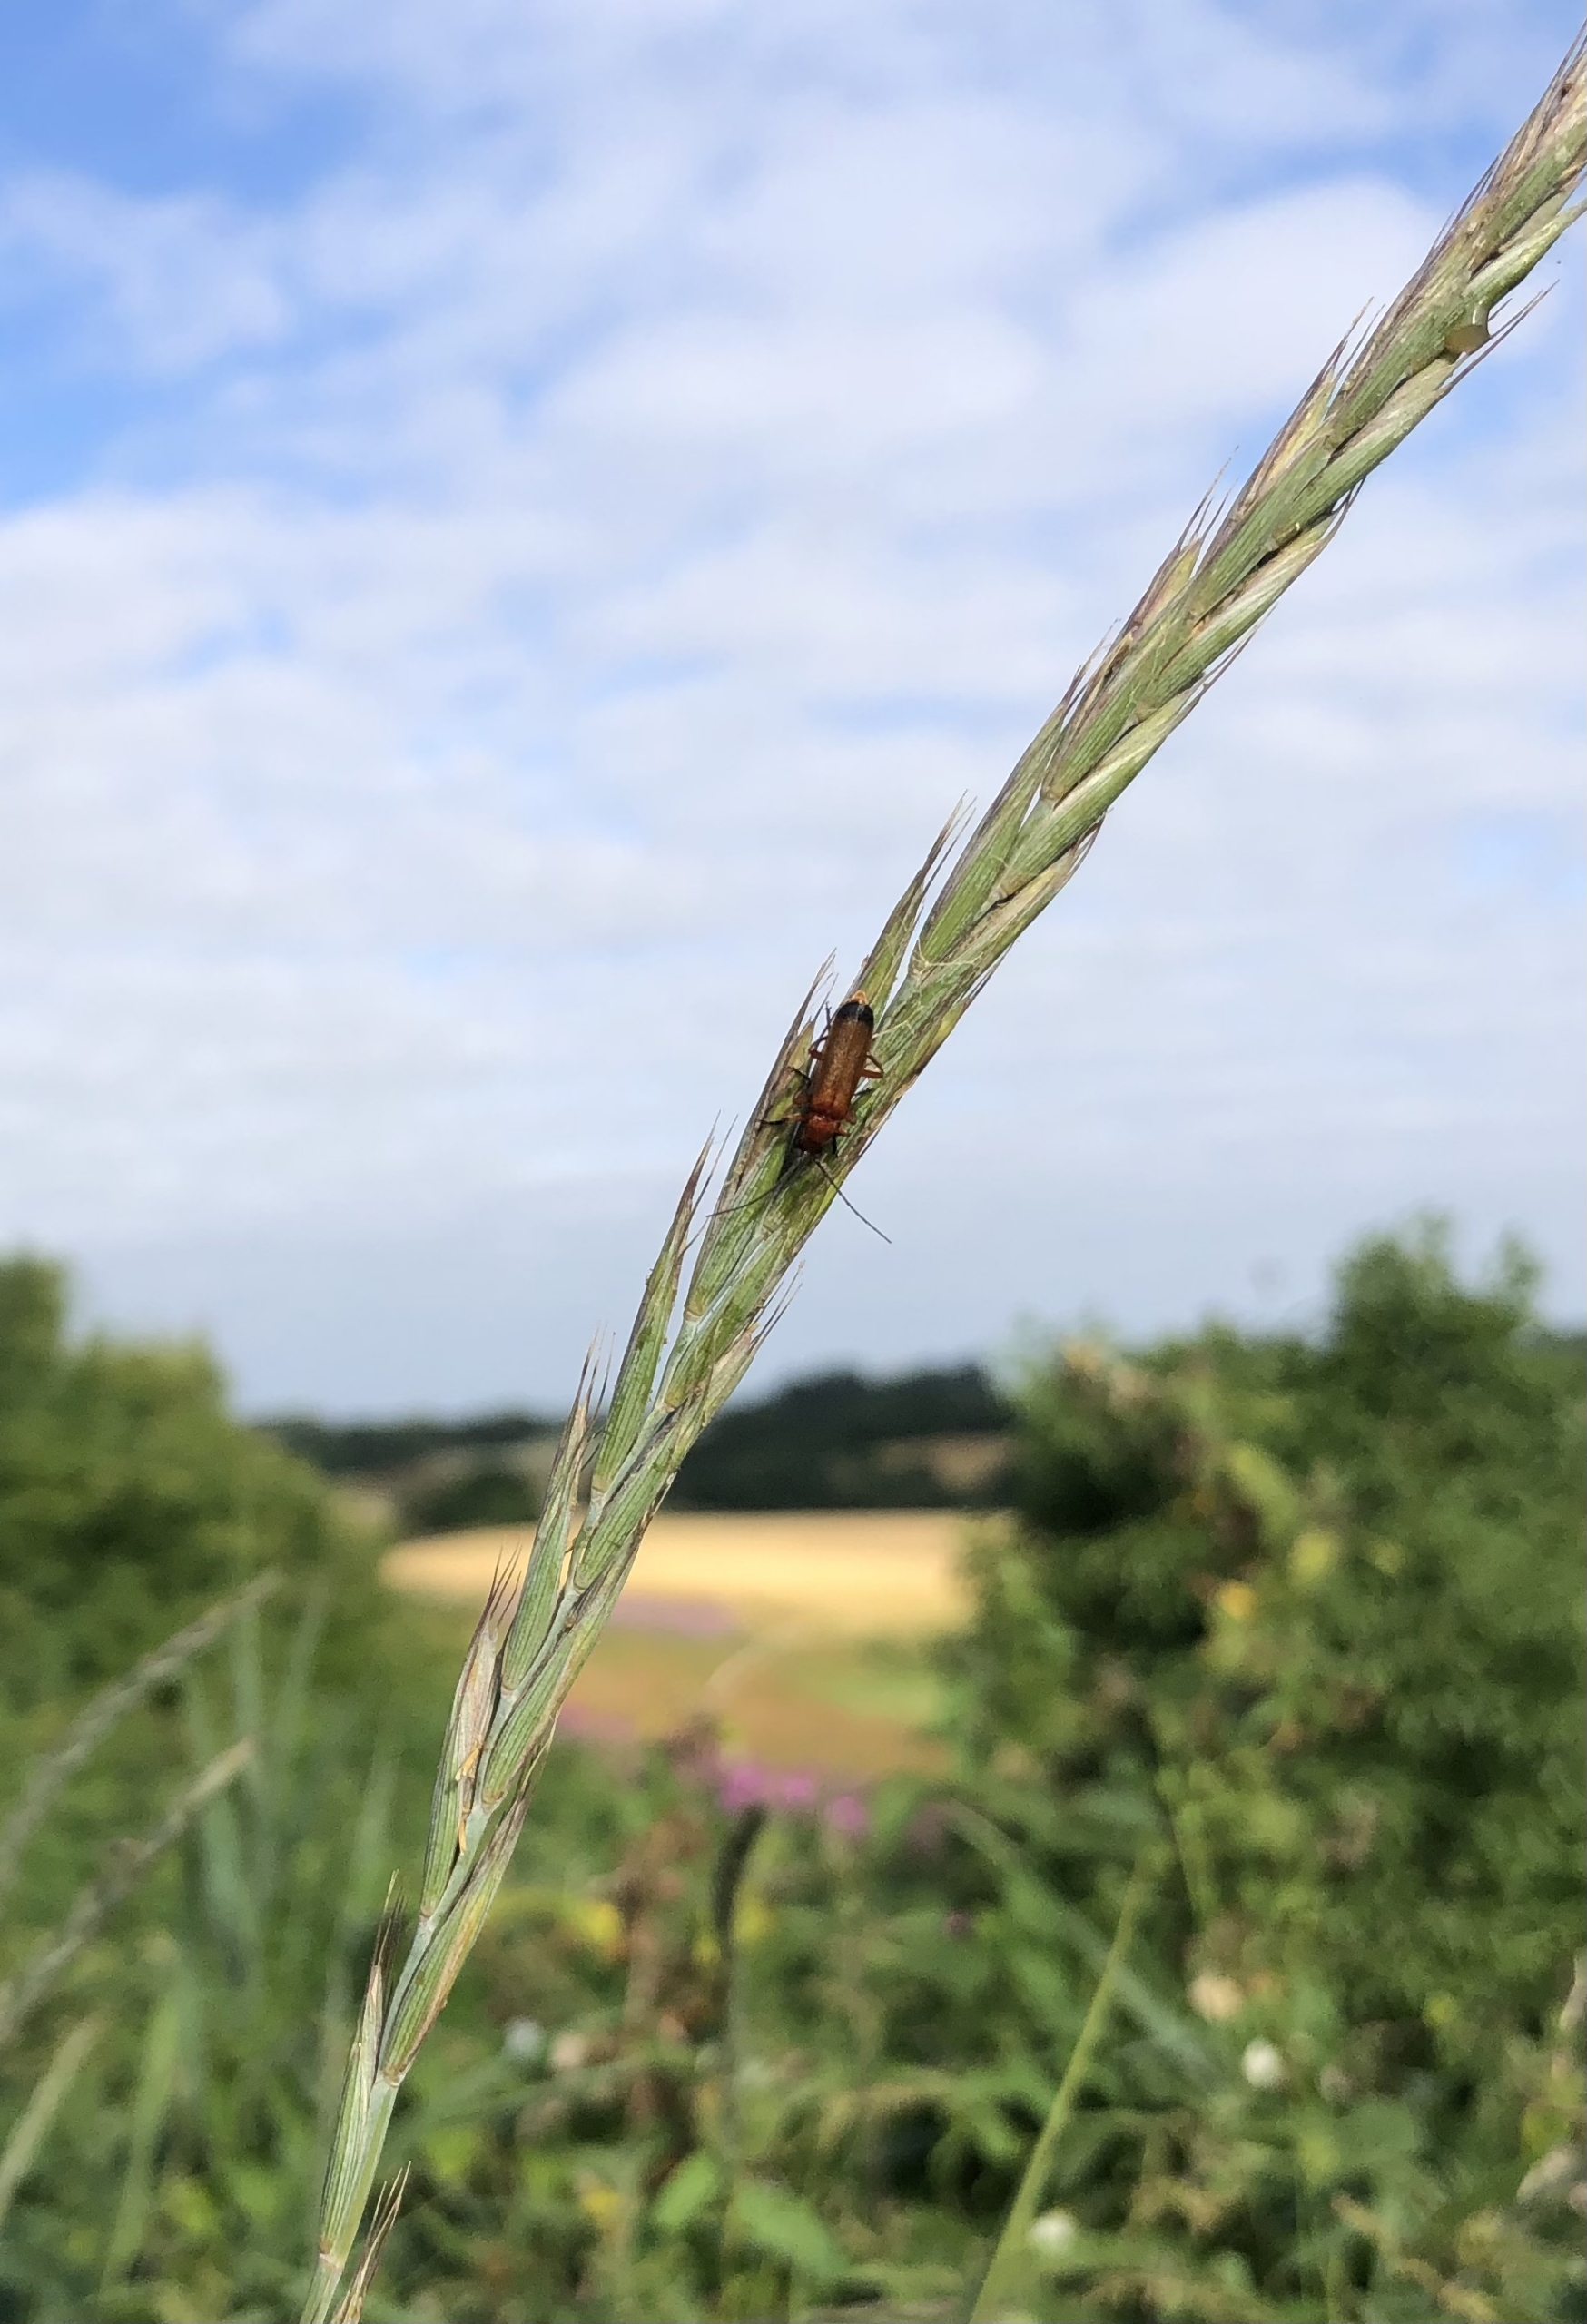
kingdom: Animalia
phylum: Arthropoda
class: Insecta
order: Coleoptera
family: Cantharidae
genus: Rhagonycha
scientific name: Rhagonycha fulva
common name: Præstebille
